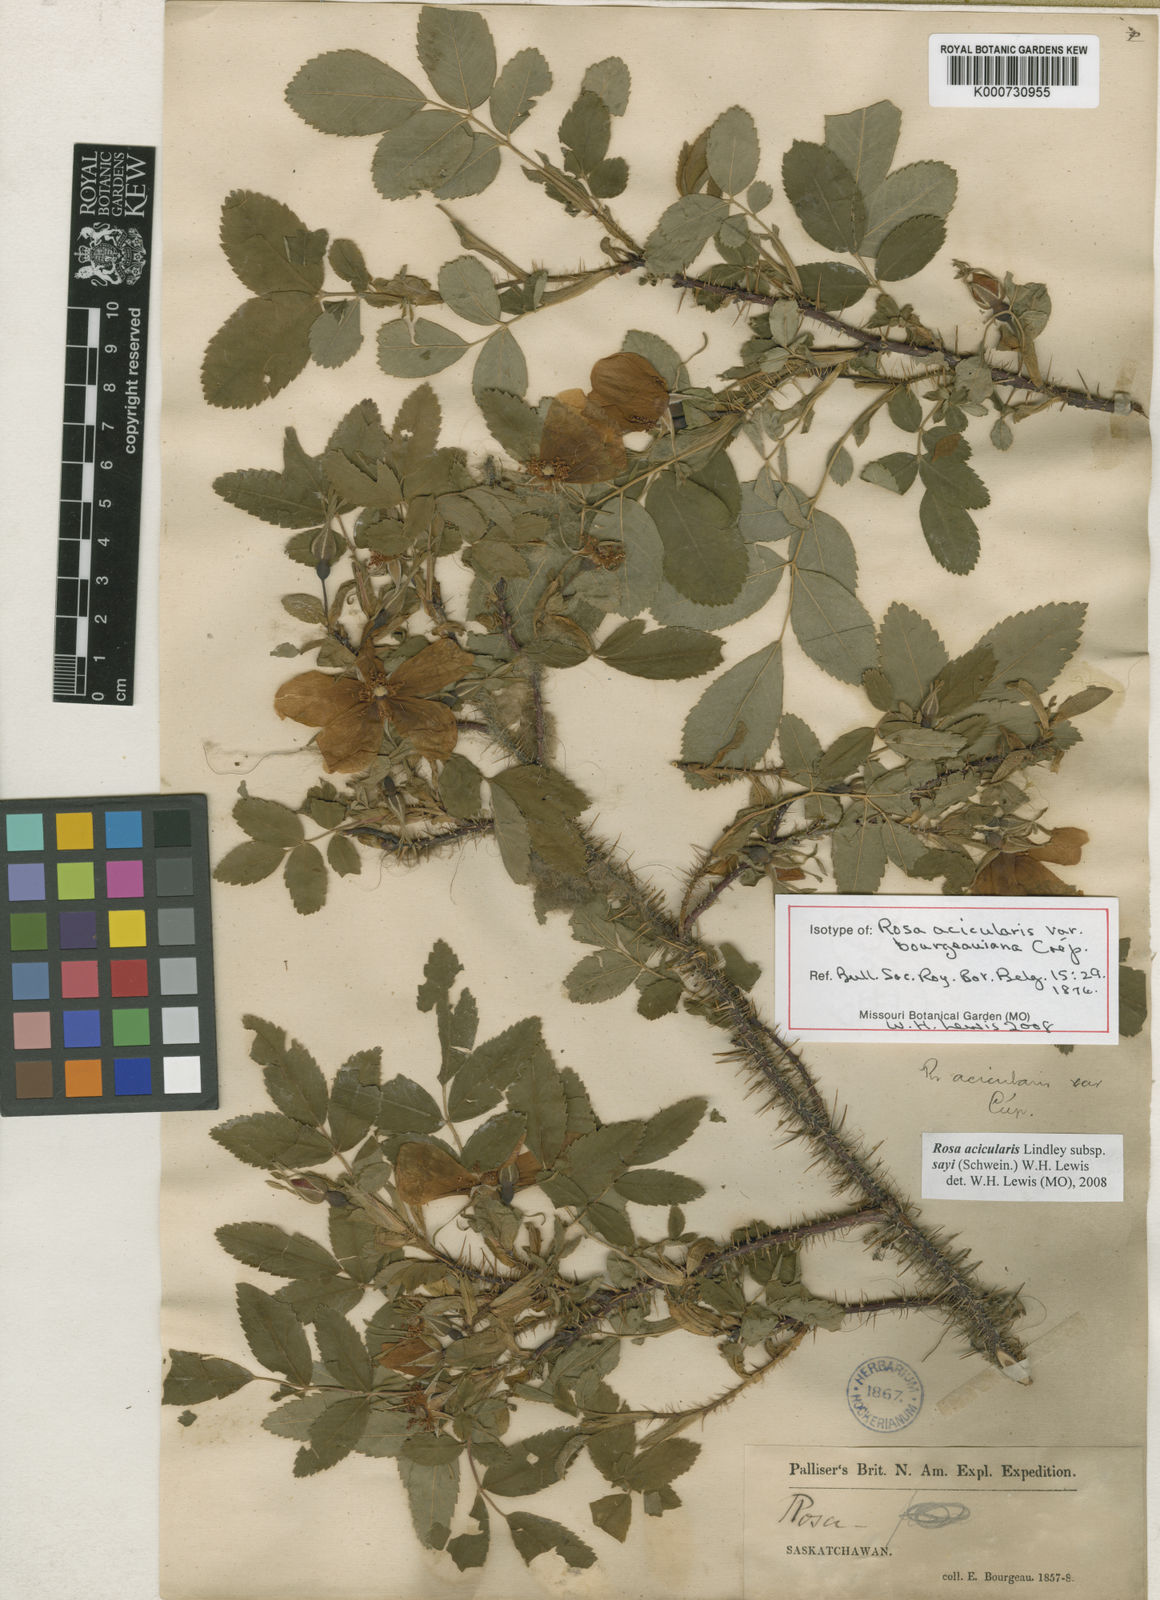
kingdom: Plantae
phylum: Tracheophyta
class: Magnoliopsida
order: Rosales
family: Rosaceae
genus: Rosa
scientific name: Rosa acicularis
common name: Prickly rose
